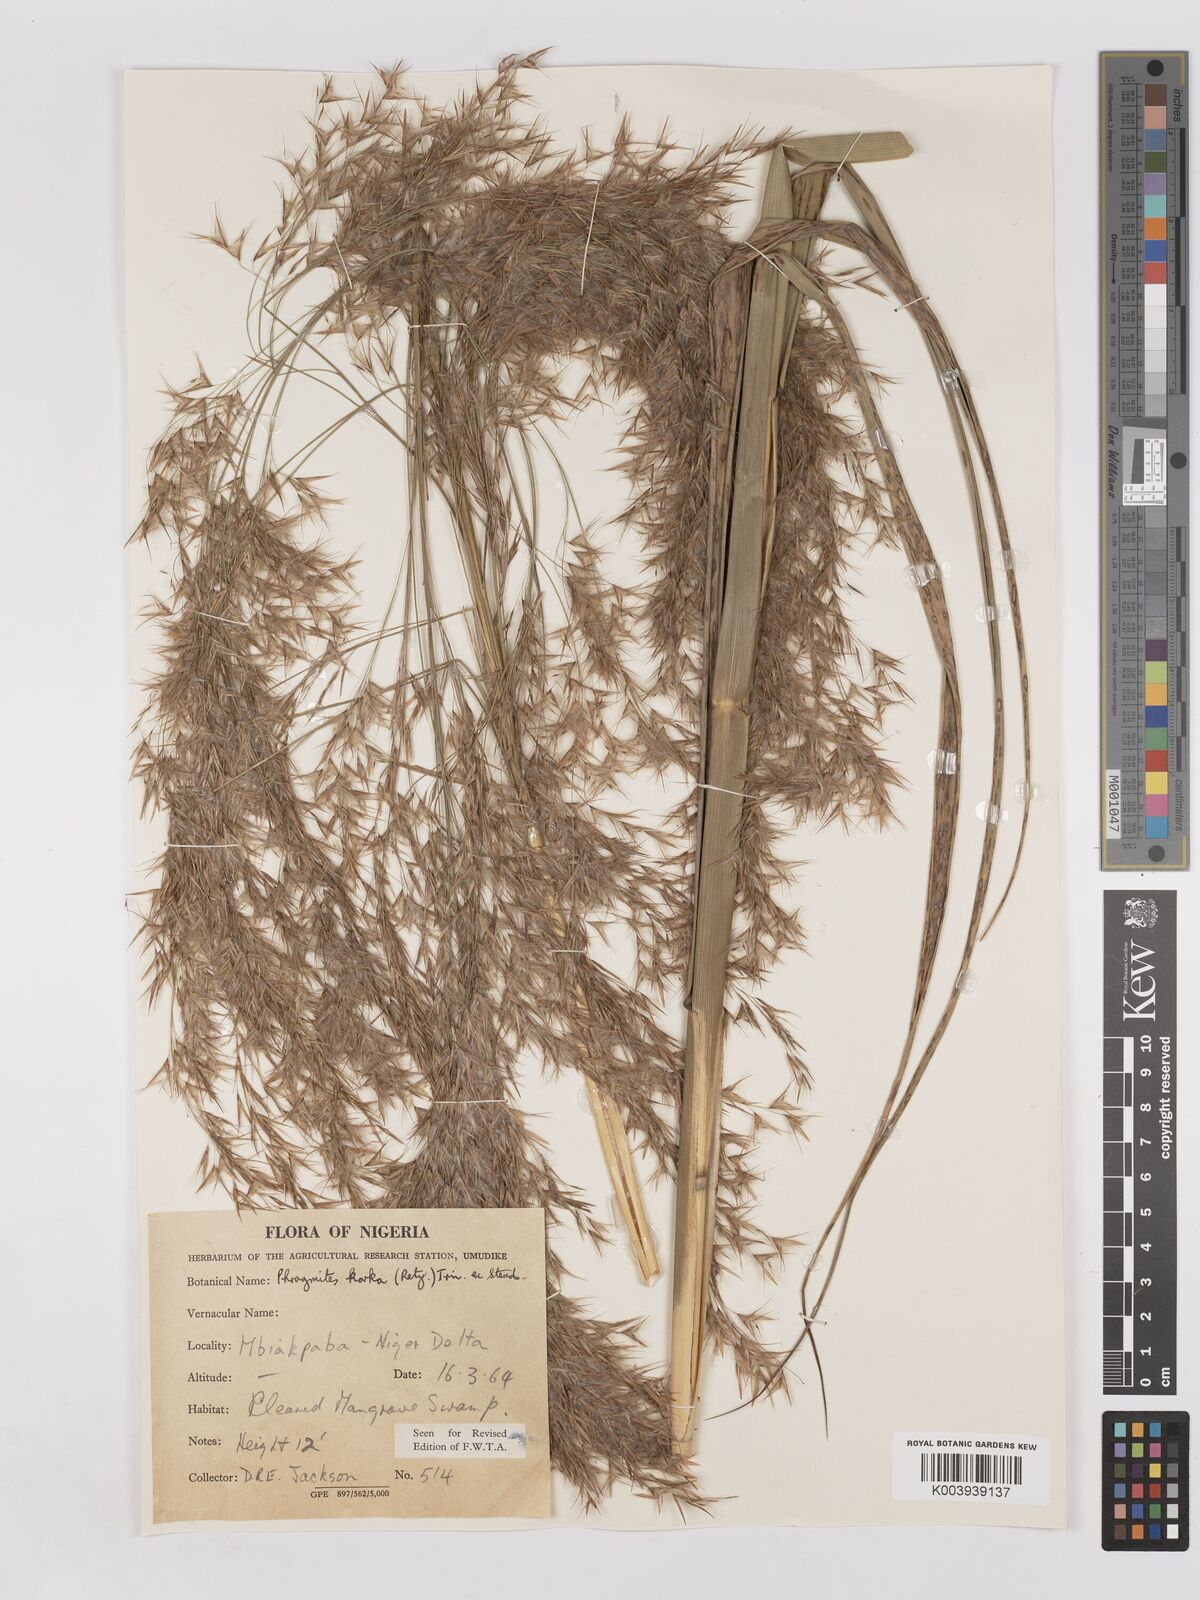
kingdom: Plantae
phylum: Tracheophyta
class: Liliopsida
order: Poales
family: Poaceae
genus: Phragmites
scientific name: Phragmites karka
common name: Tropical reed
